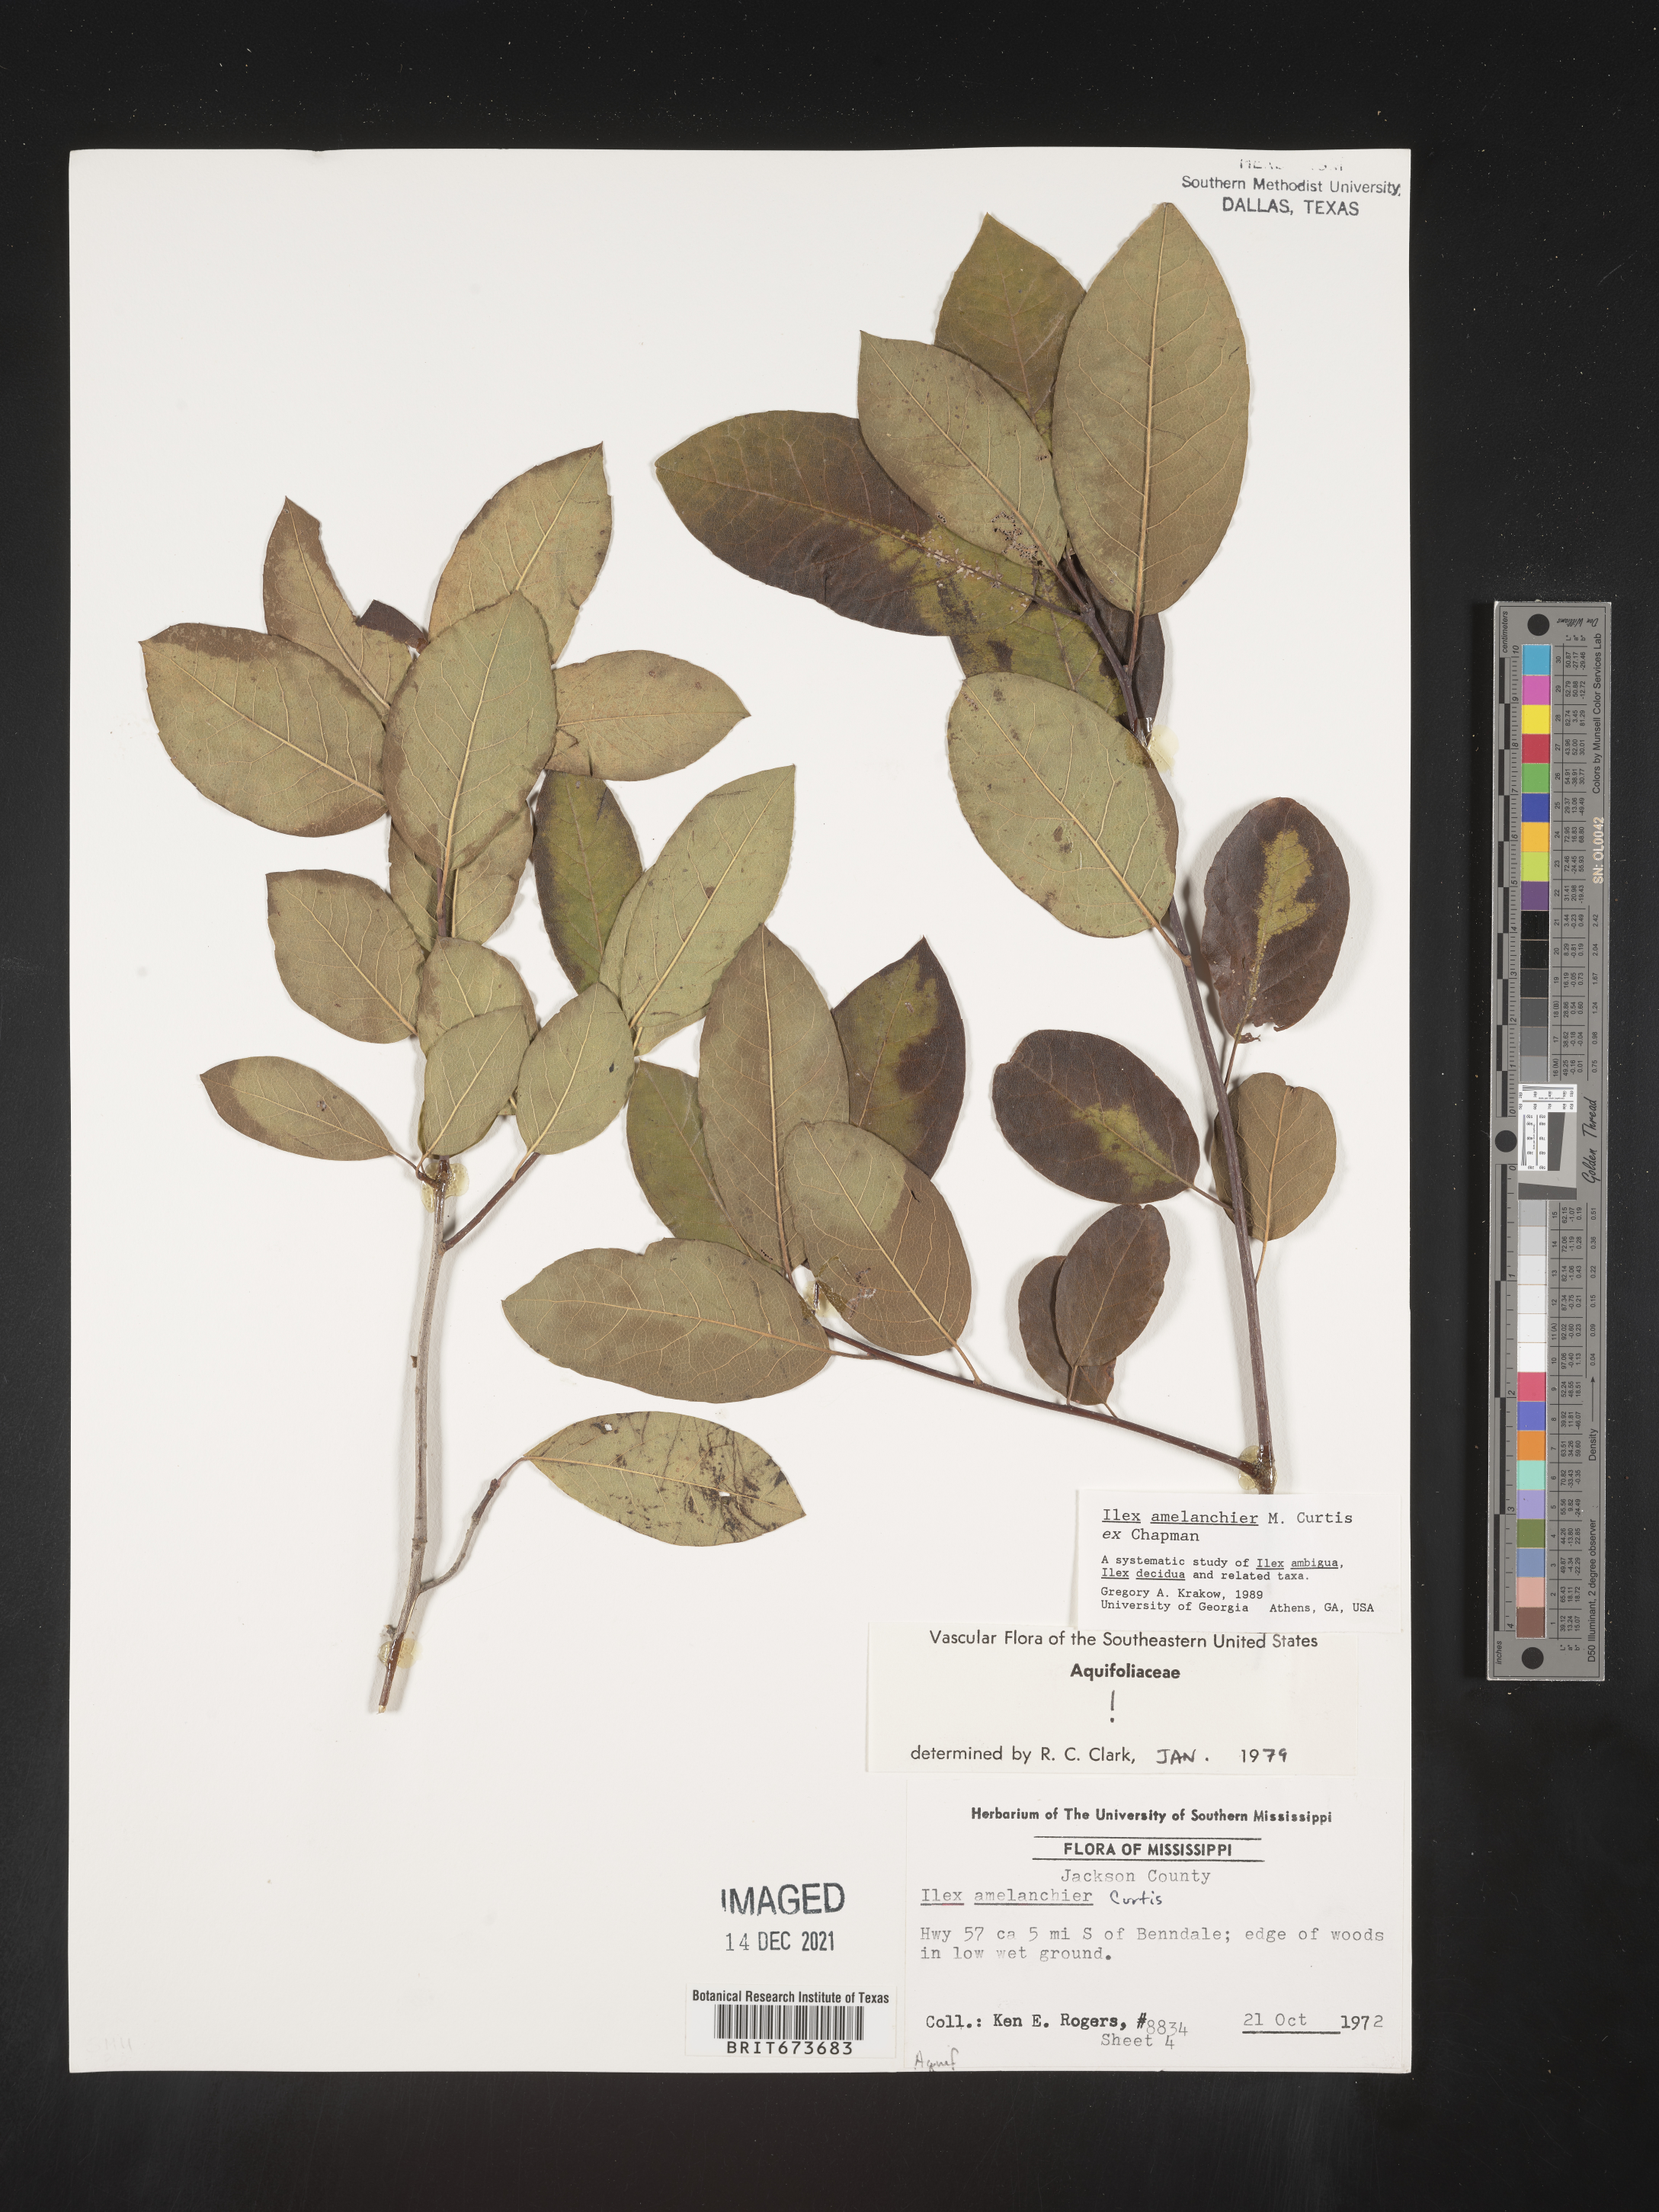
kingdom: Plantae
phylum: Tracheophyta
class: Magnoliopsida
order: Aquifoliales
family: Aquifoliaceae
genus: Ilex
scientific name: Ilex amelanchier
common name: Sarvis holly
